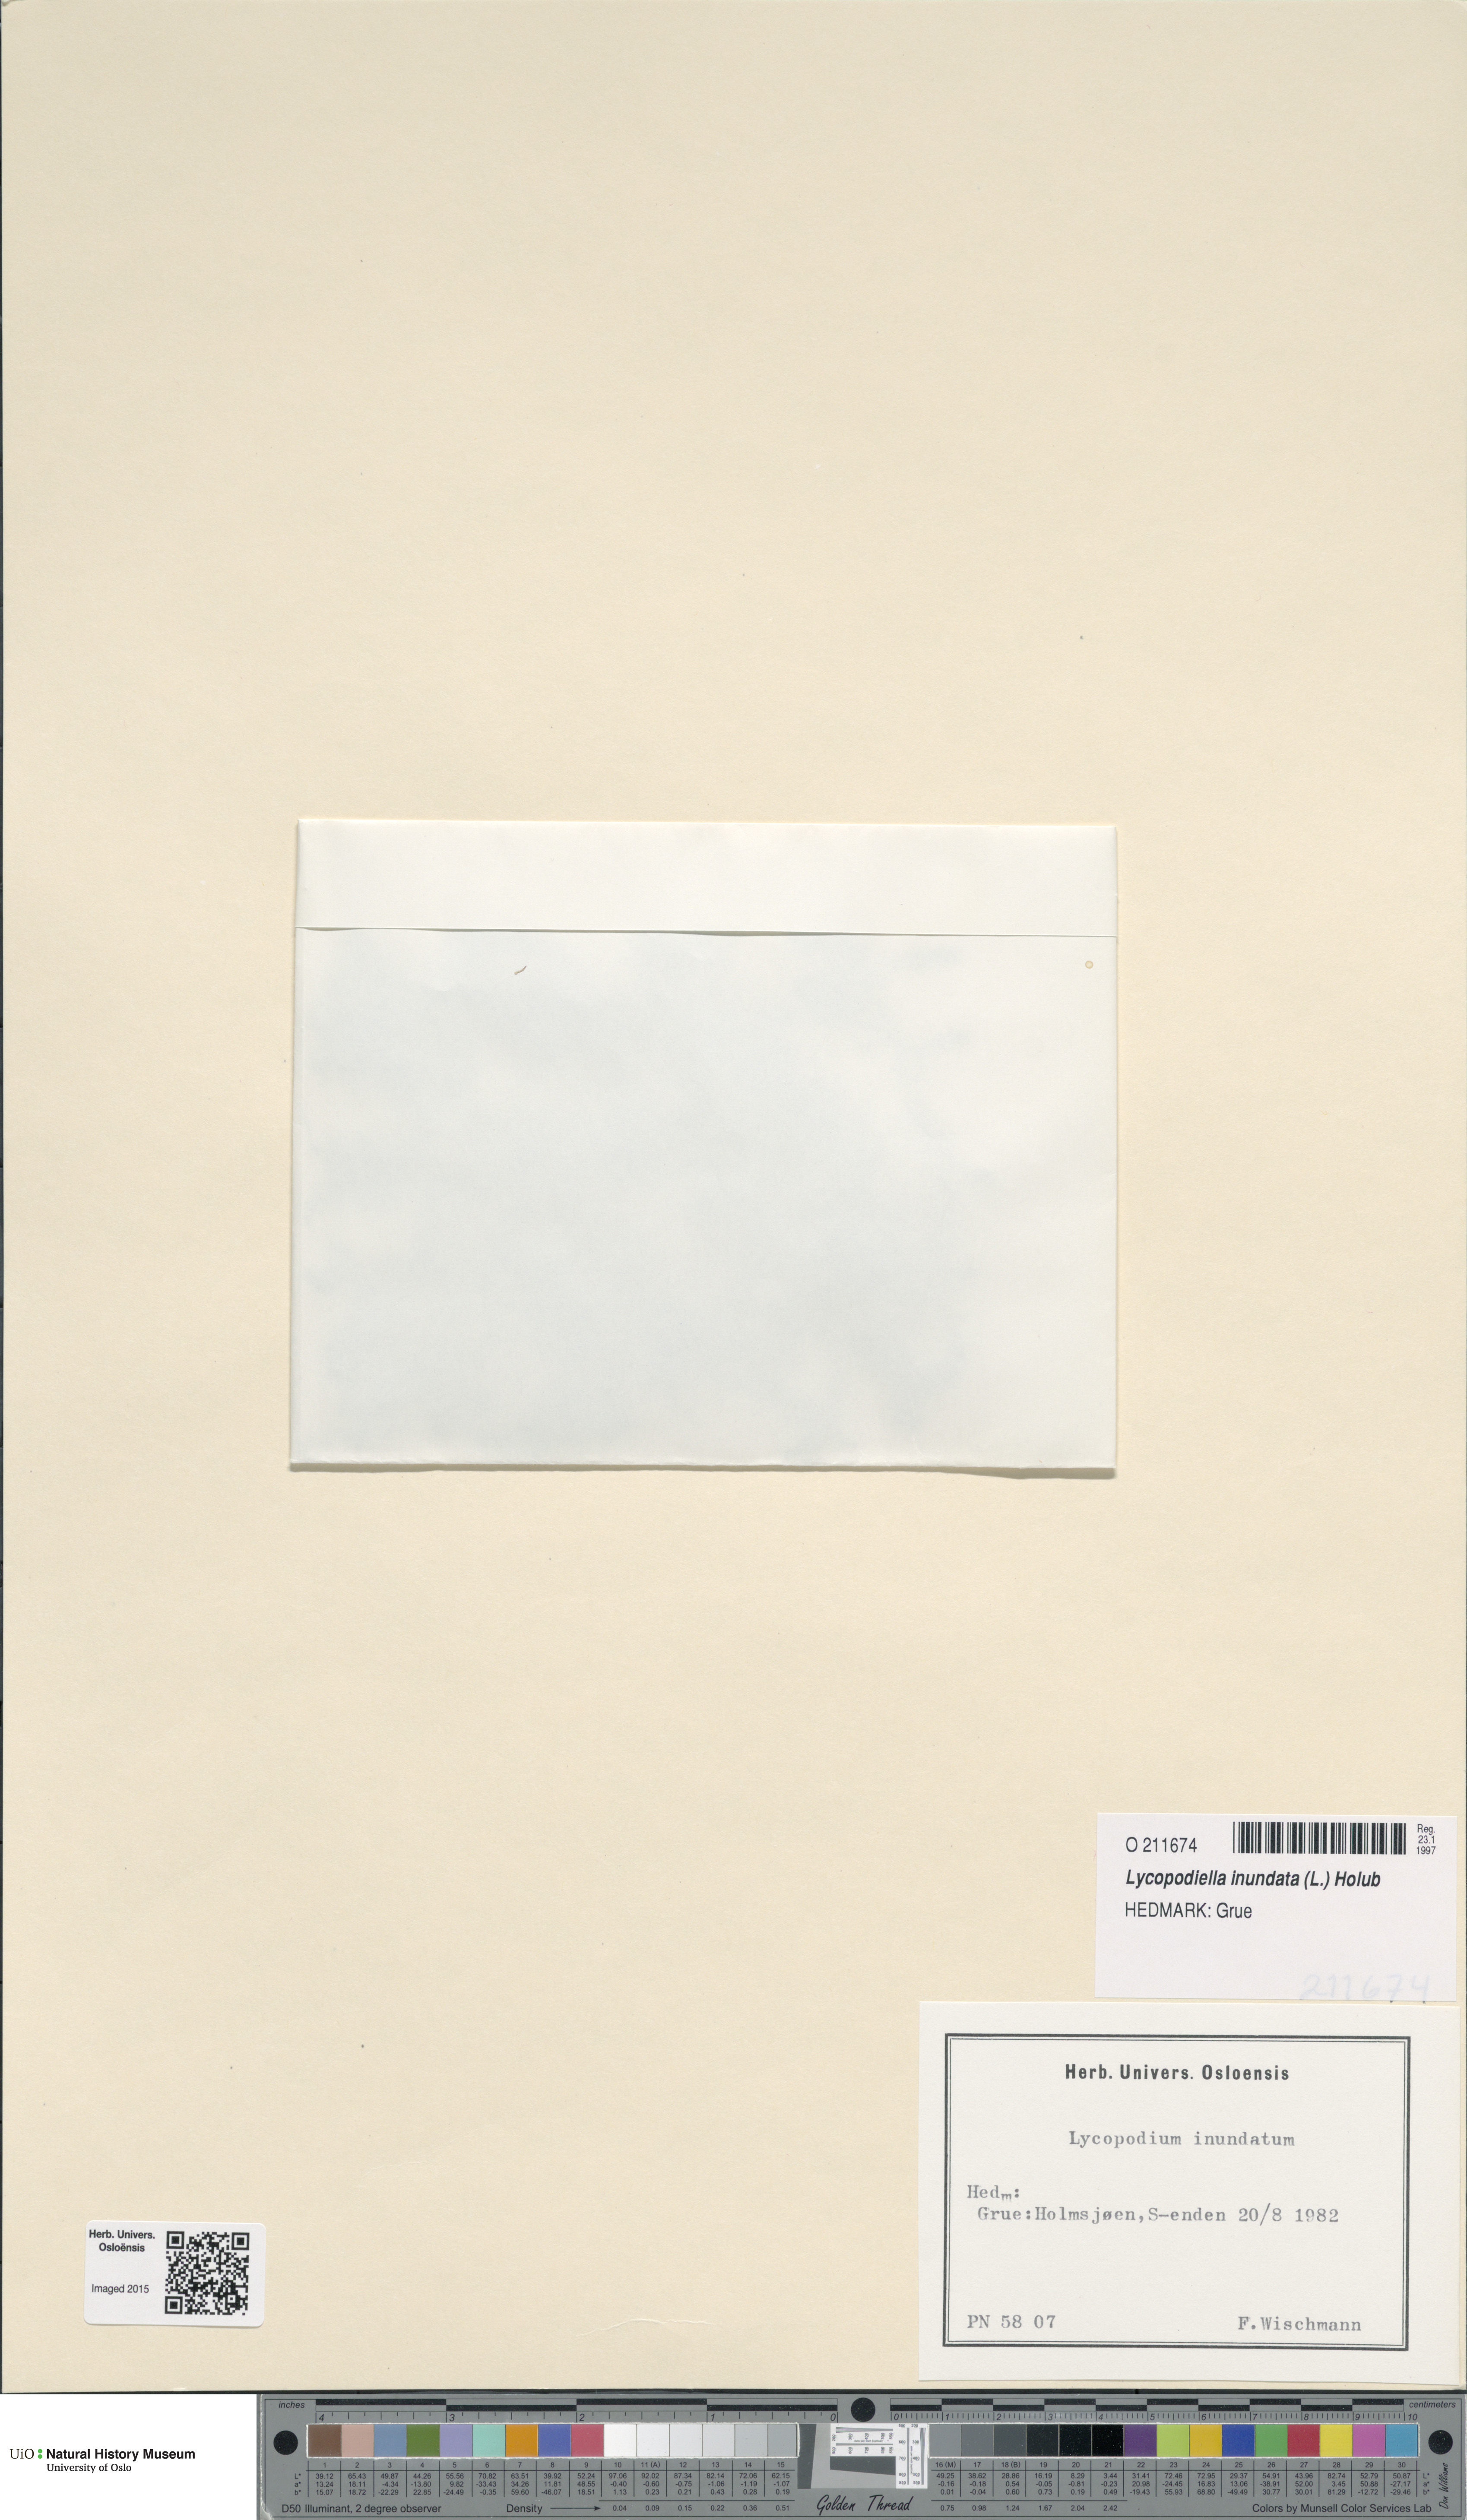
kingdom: Plantae
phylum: Tracheophyta
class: Lycopodiopsida
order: Lycopodiales
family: Lycopodiaceae
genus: Lycopodiella
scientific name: Lycopodiella inundata
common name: Marsh clubmoss
